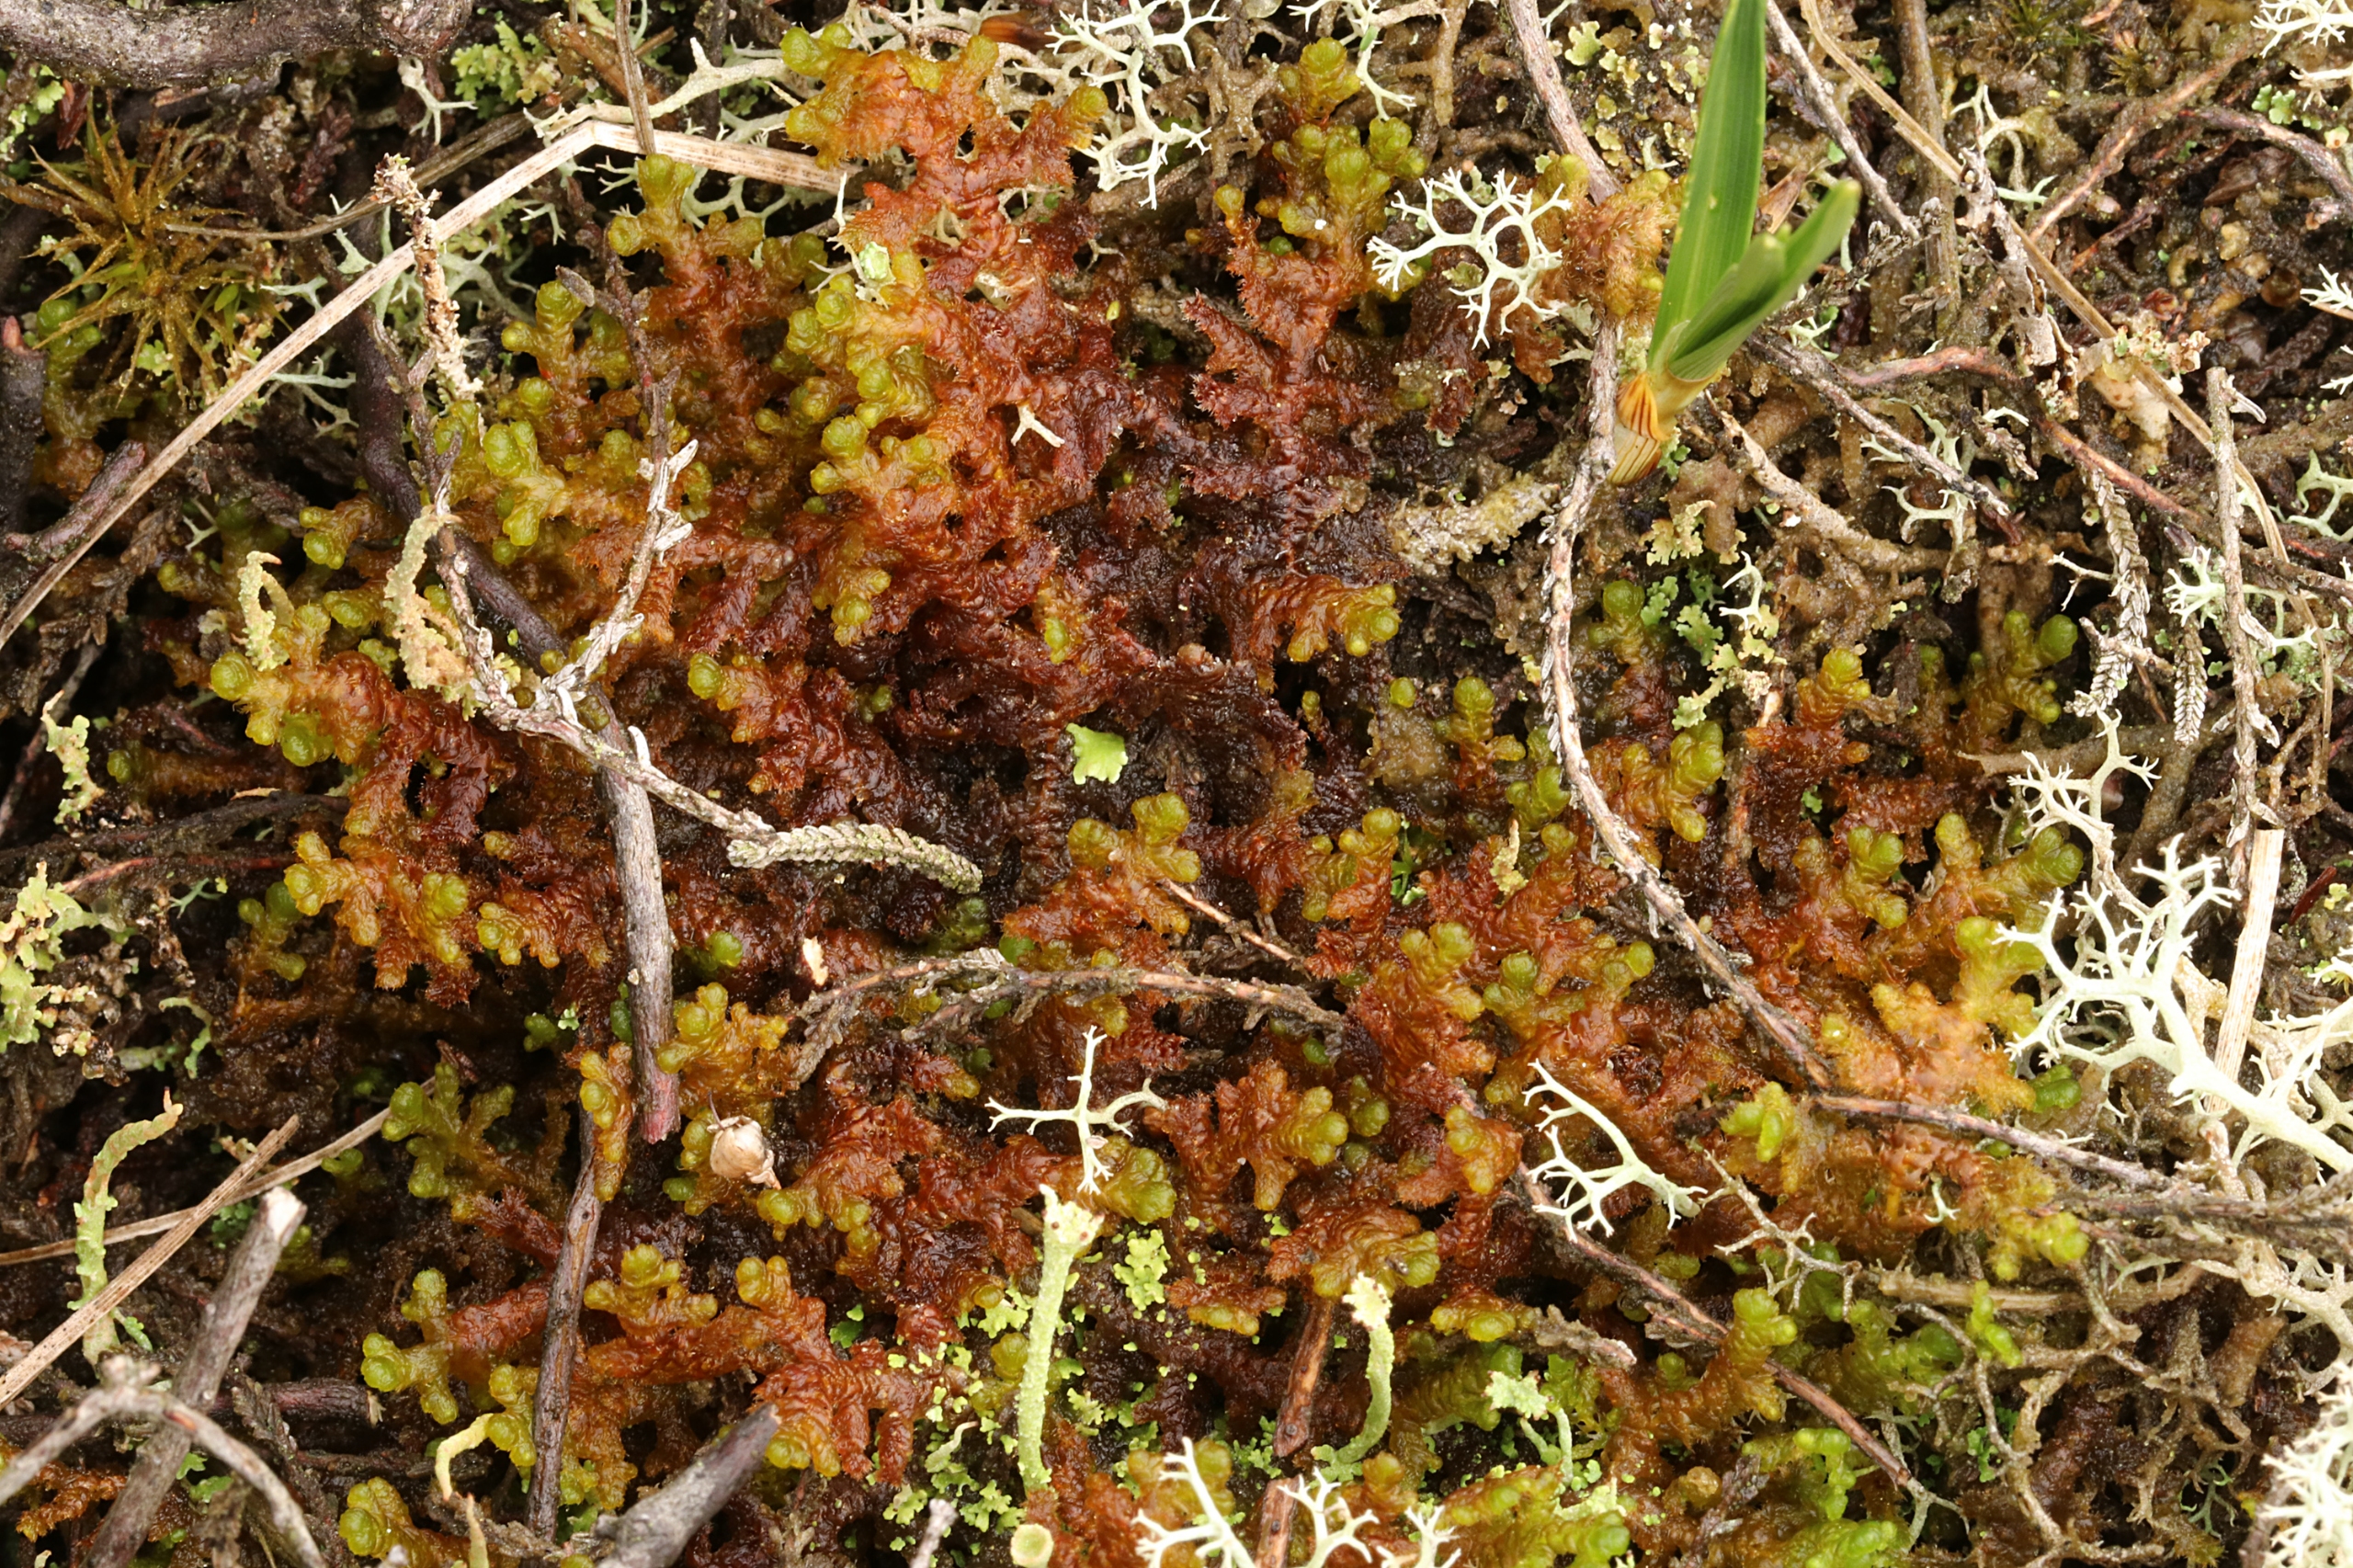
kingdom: Plantae
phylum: Marchantiophyta
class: Jungermanniopsida
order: Ptilidiales
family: Ptilidiaceae
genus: Ptilidium
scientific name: Ptilidium ciliare
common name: Almindelig frynsemos
